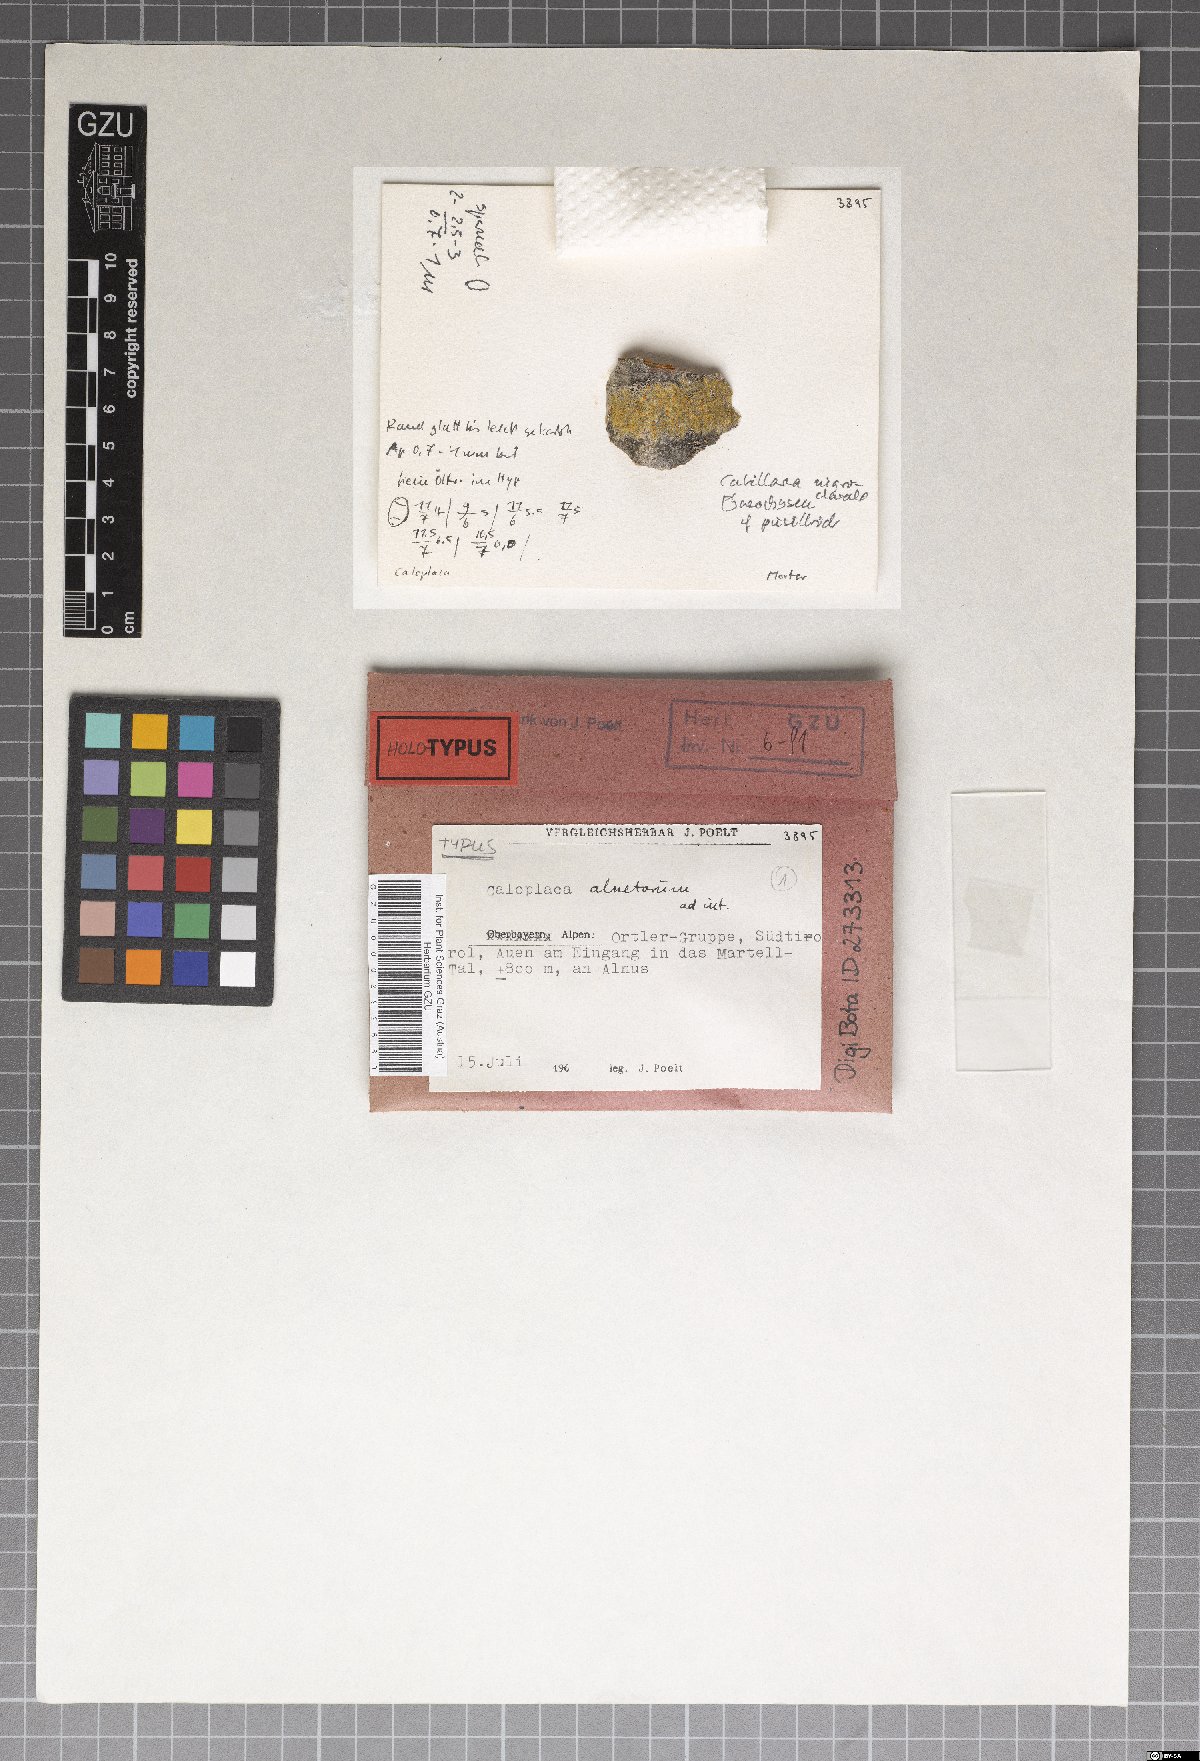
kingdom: Fungi
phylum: Ascomycota
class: Lecanoromycetes
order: Teloschistales
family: Teloschistaceae
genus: Athallia
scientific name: Athallia alnetorum
